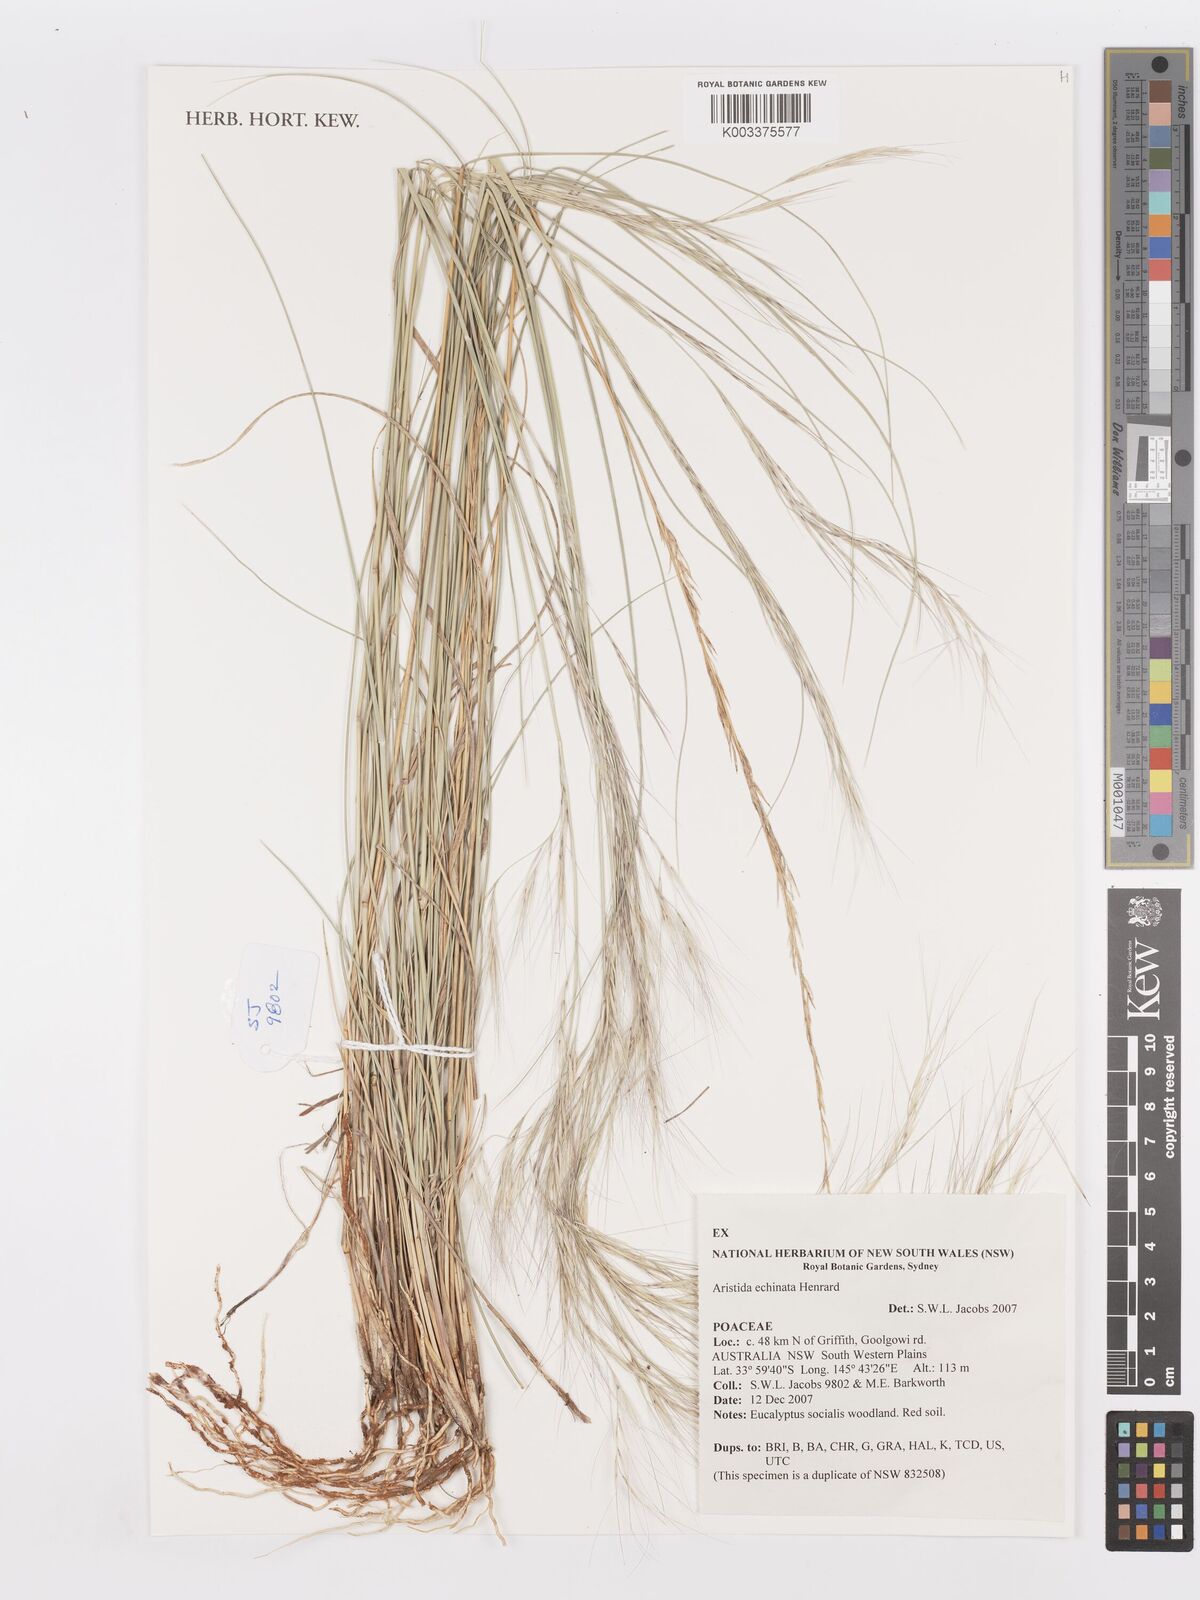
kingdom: Plantae
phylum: Tracheophyta
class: Liliopsida
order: Poales
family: Poaceae
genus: Aristida
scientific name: Aristida echinata
